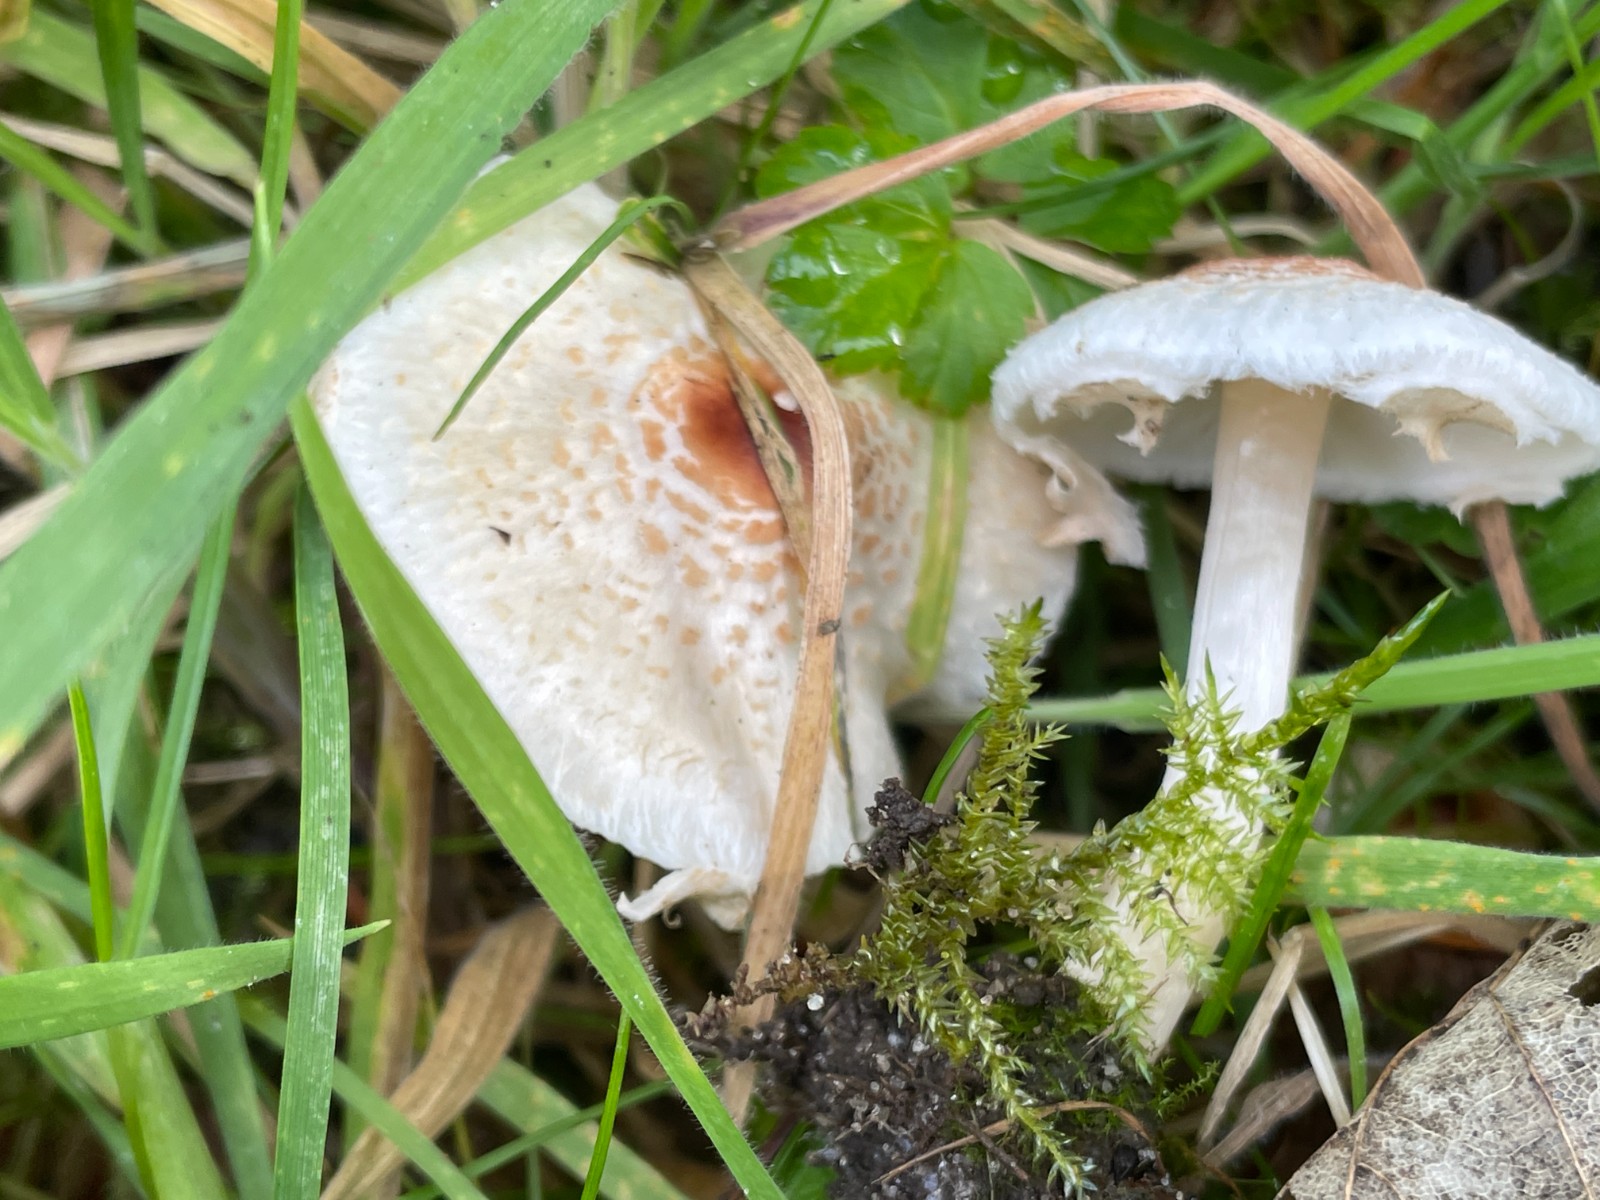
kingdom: Fungi
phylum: Basidiomycota
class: Agaricomycetes
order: Agaricales
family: Agaricaceae
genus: Lepiota
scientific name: Lepiota cristata
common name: stinkende parasolhat
